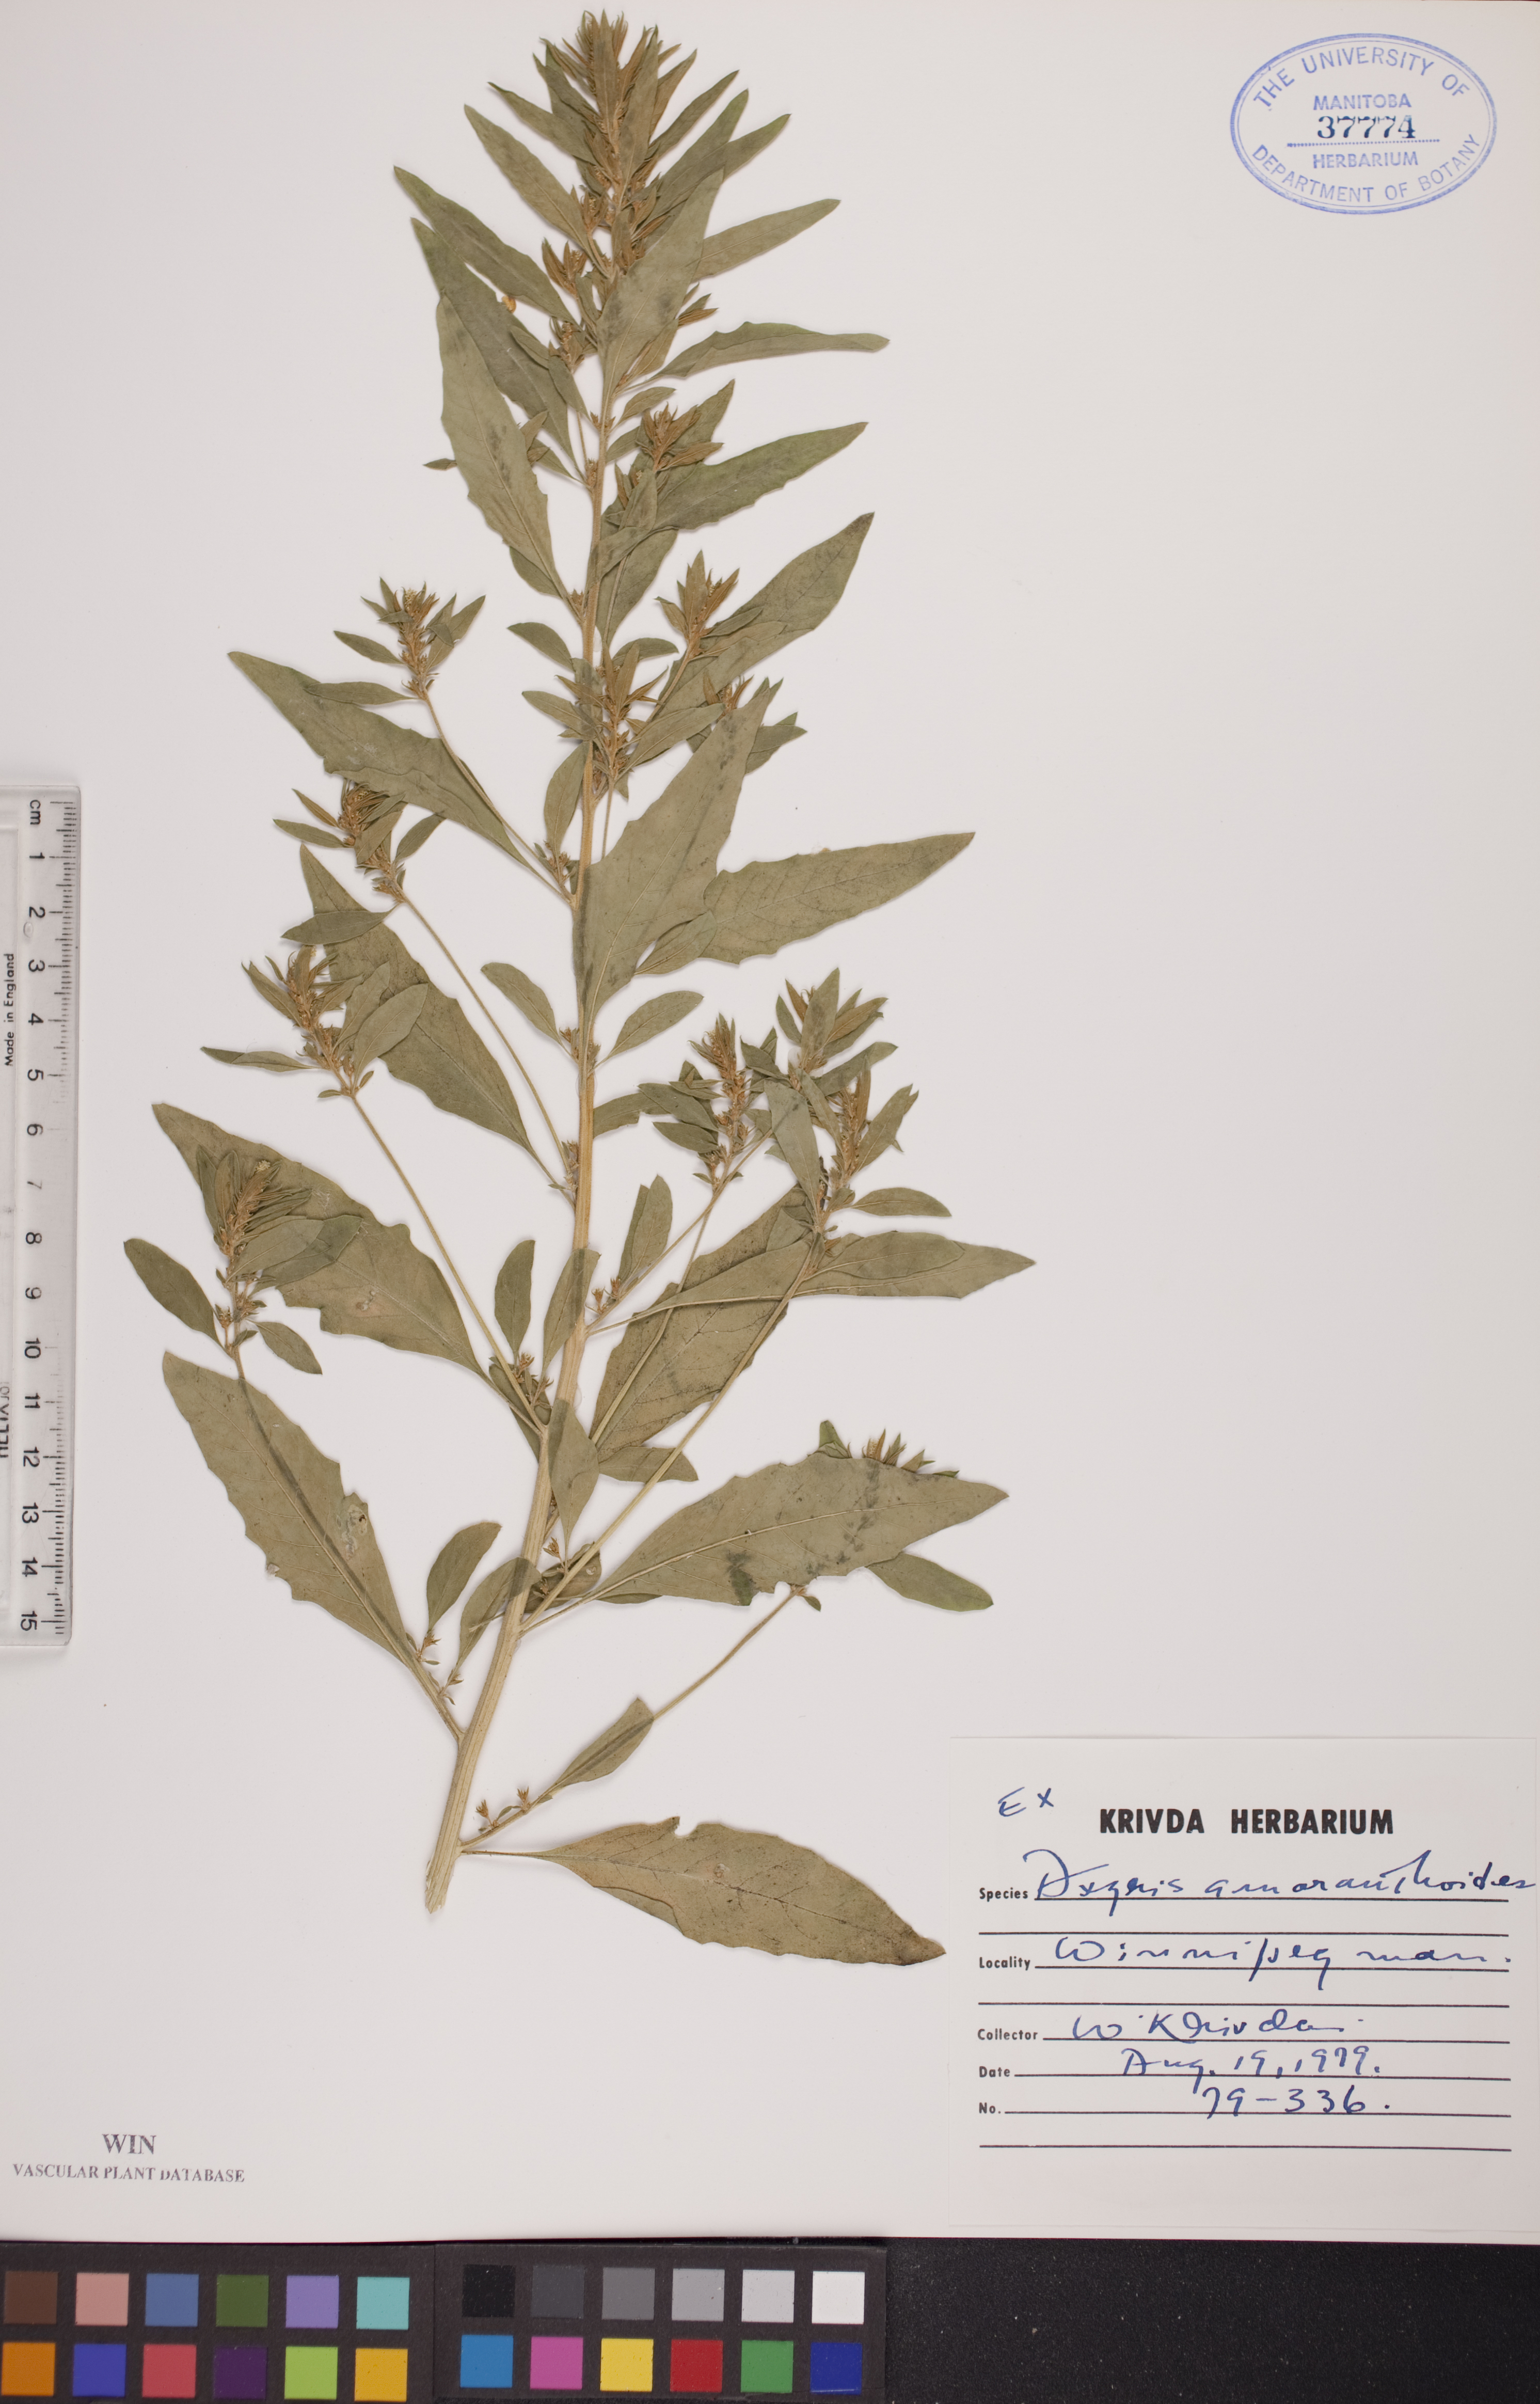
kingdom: Plantae
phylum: Tracheophyta
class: Magnoliopsida
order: Caryophyllales
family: Amaranthaceae
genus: Axyris
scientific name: Axyris amaranthoides
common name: Russian pigweed
